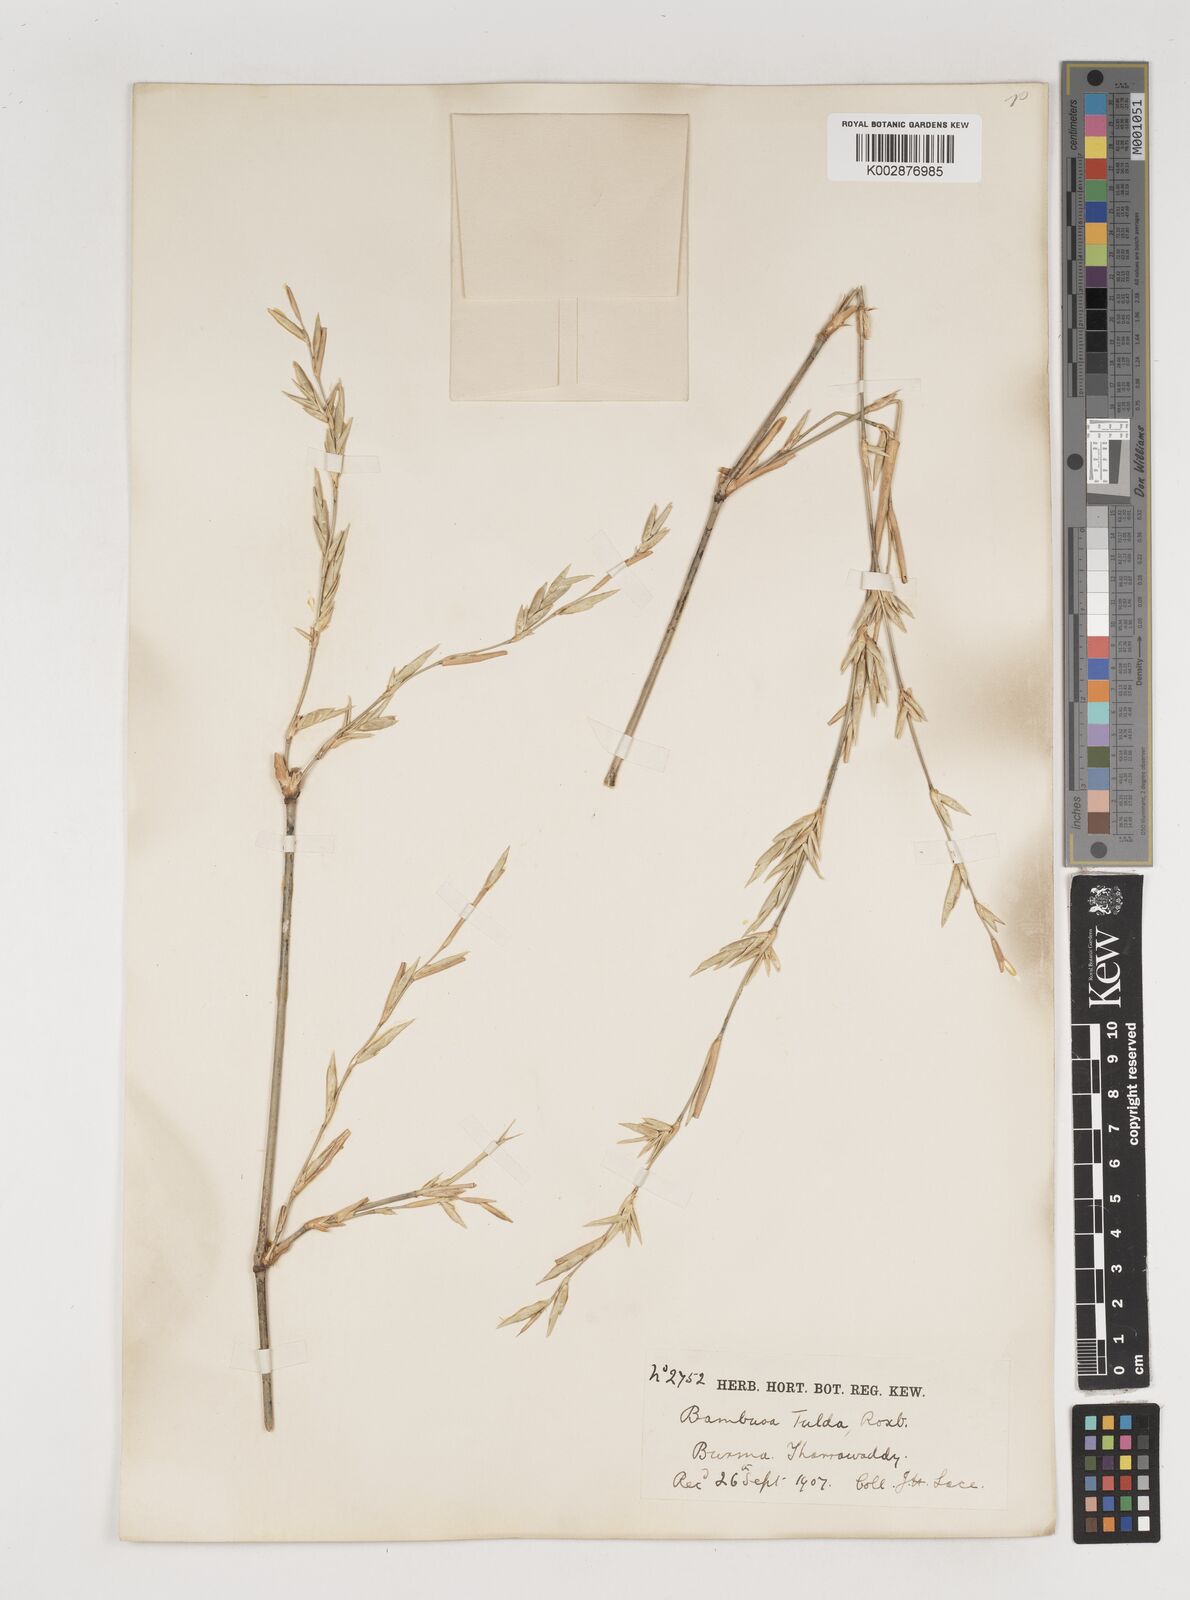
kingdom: Plantae
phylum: Tracheophyta
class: Liliopsida
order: Poales
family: Poaceae
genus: Bambusa
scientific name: Bambusa tulda
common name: Bengal bamboo
